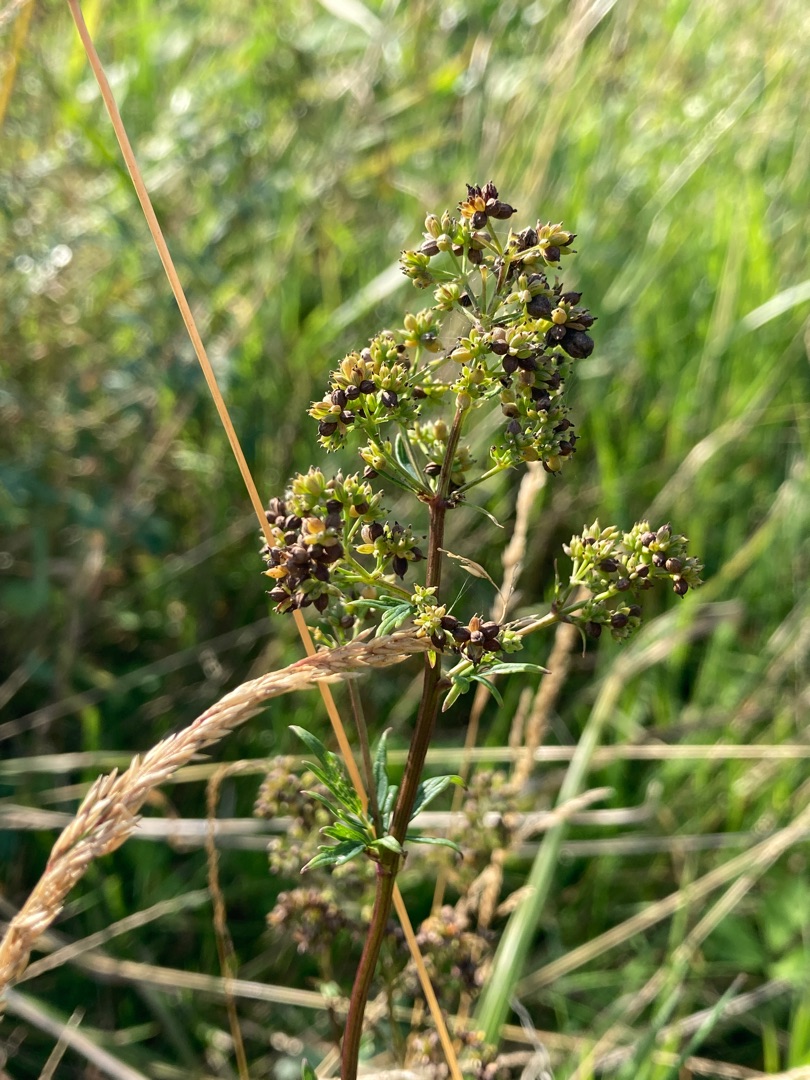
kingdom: Plantae
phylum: Tracheophyta
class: Magnoliopsida
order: Ranunculales
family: Ranunculaceae
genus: Thalictrum
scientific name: Thalictrum flavum
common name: Gul frøstjerne
